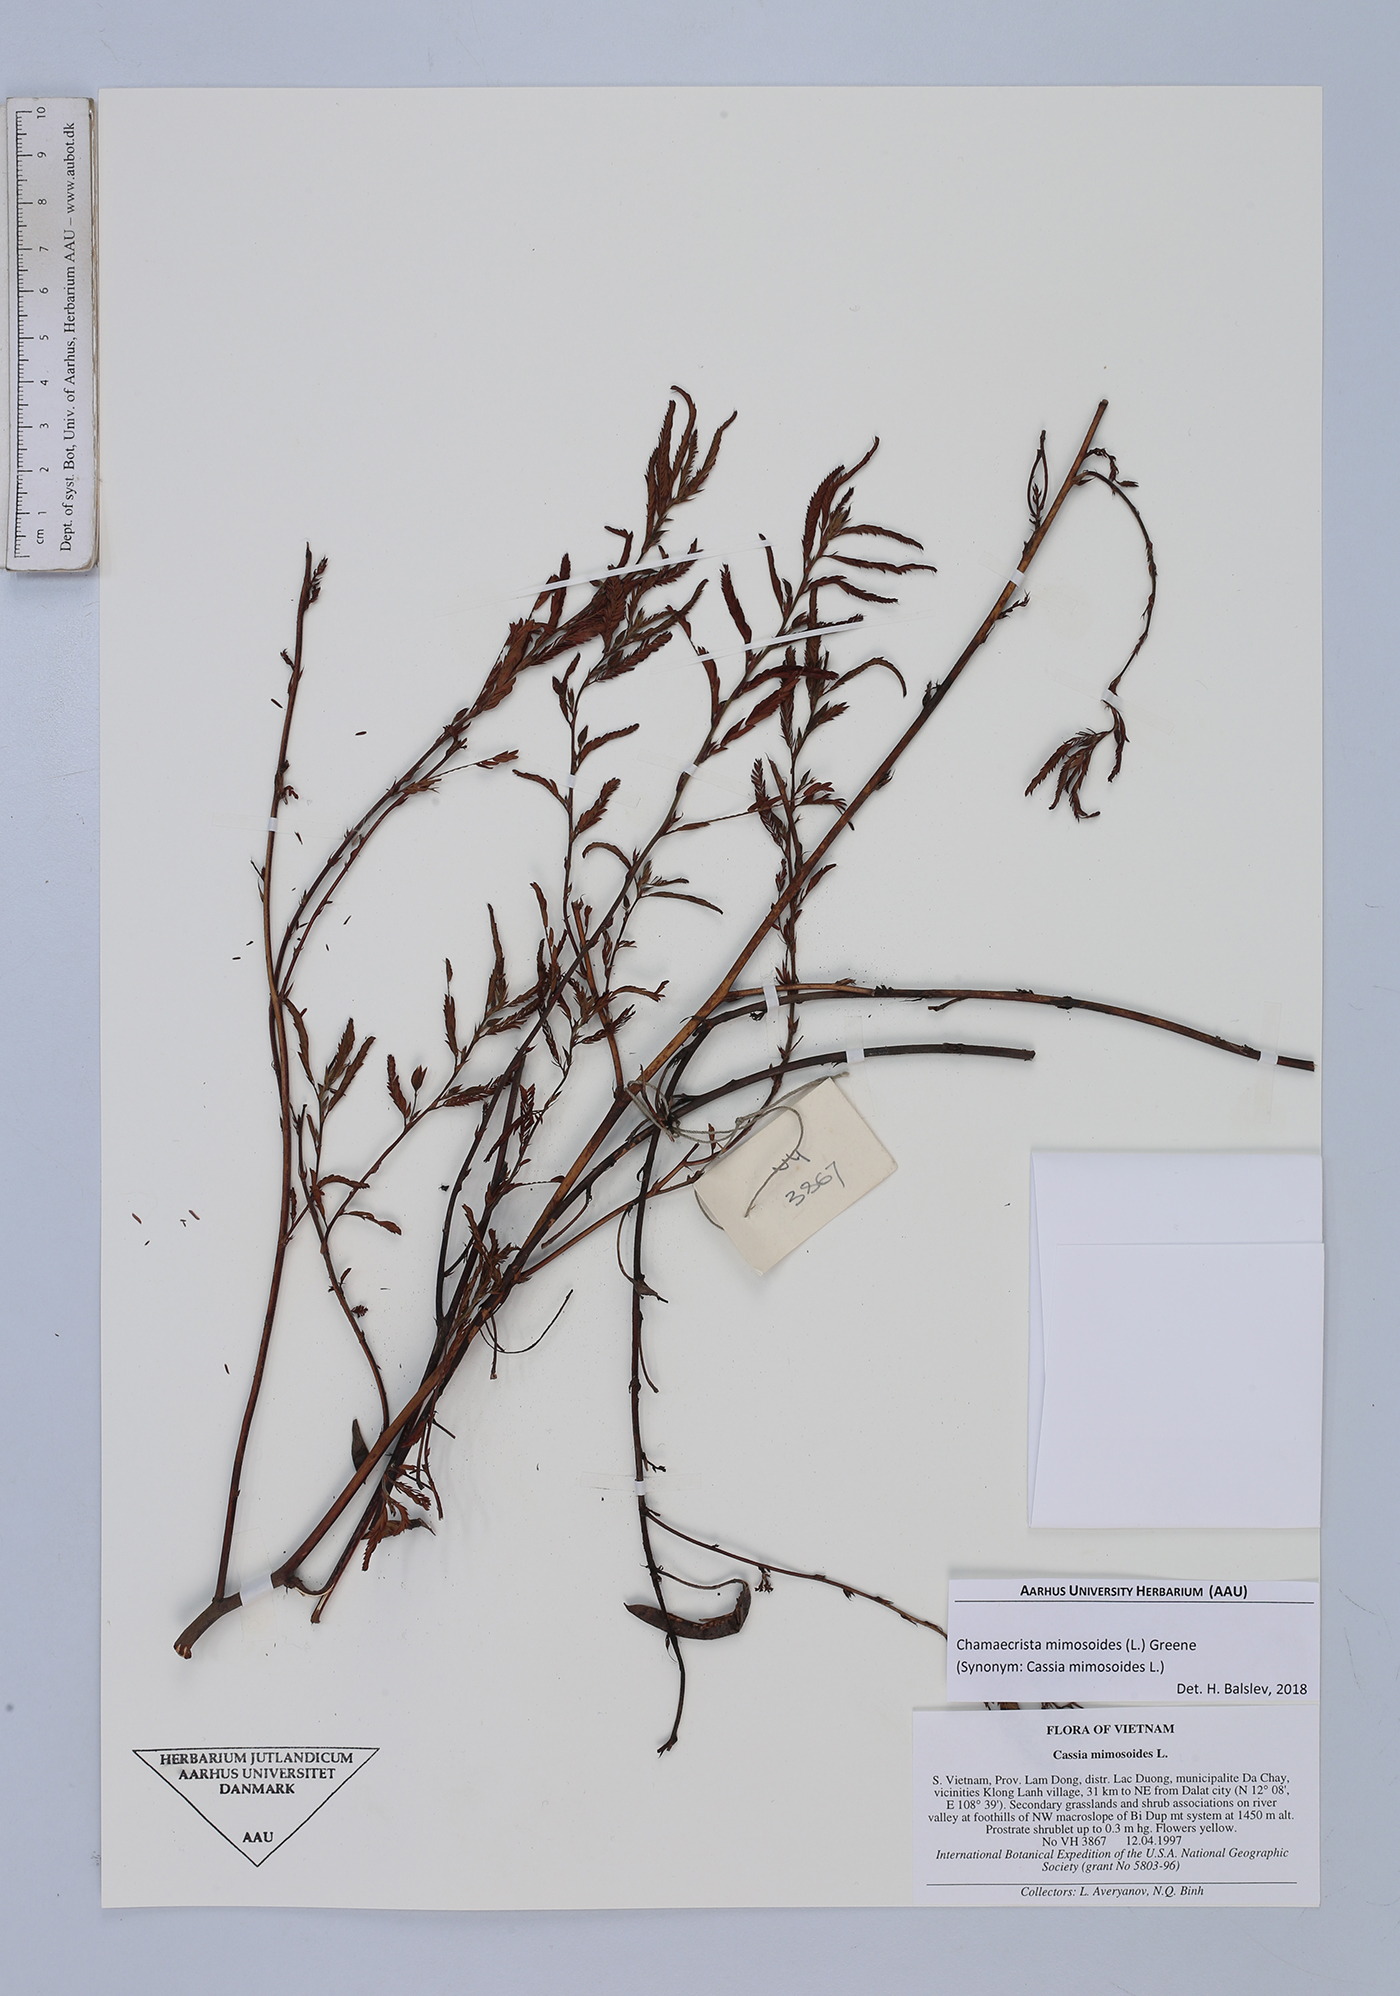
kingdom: Plantae
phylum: Tracheophyta
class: Magnoliopsida
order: Fabales
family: Fabaceae
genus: Chamaecrista
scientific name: Chamaecrista mimosoides
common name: Fish-bone cassia
